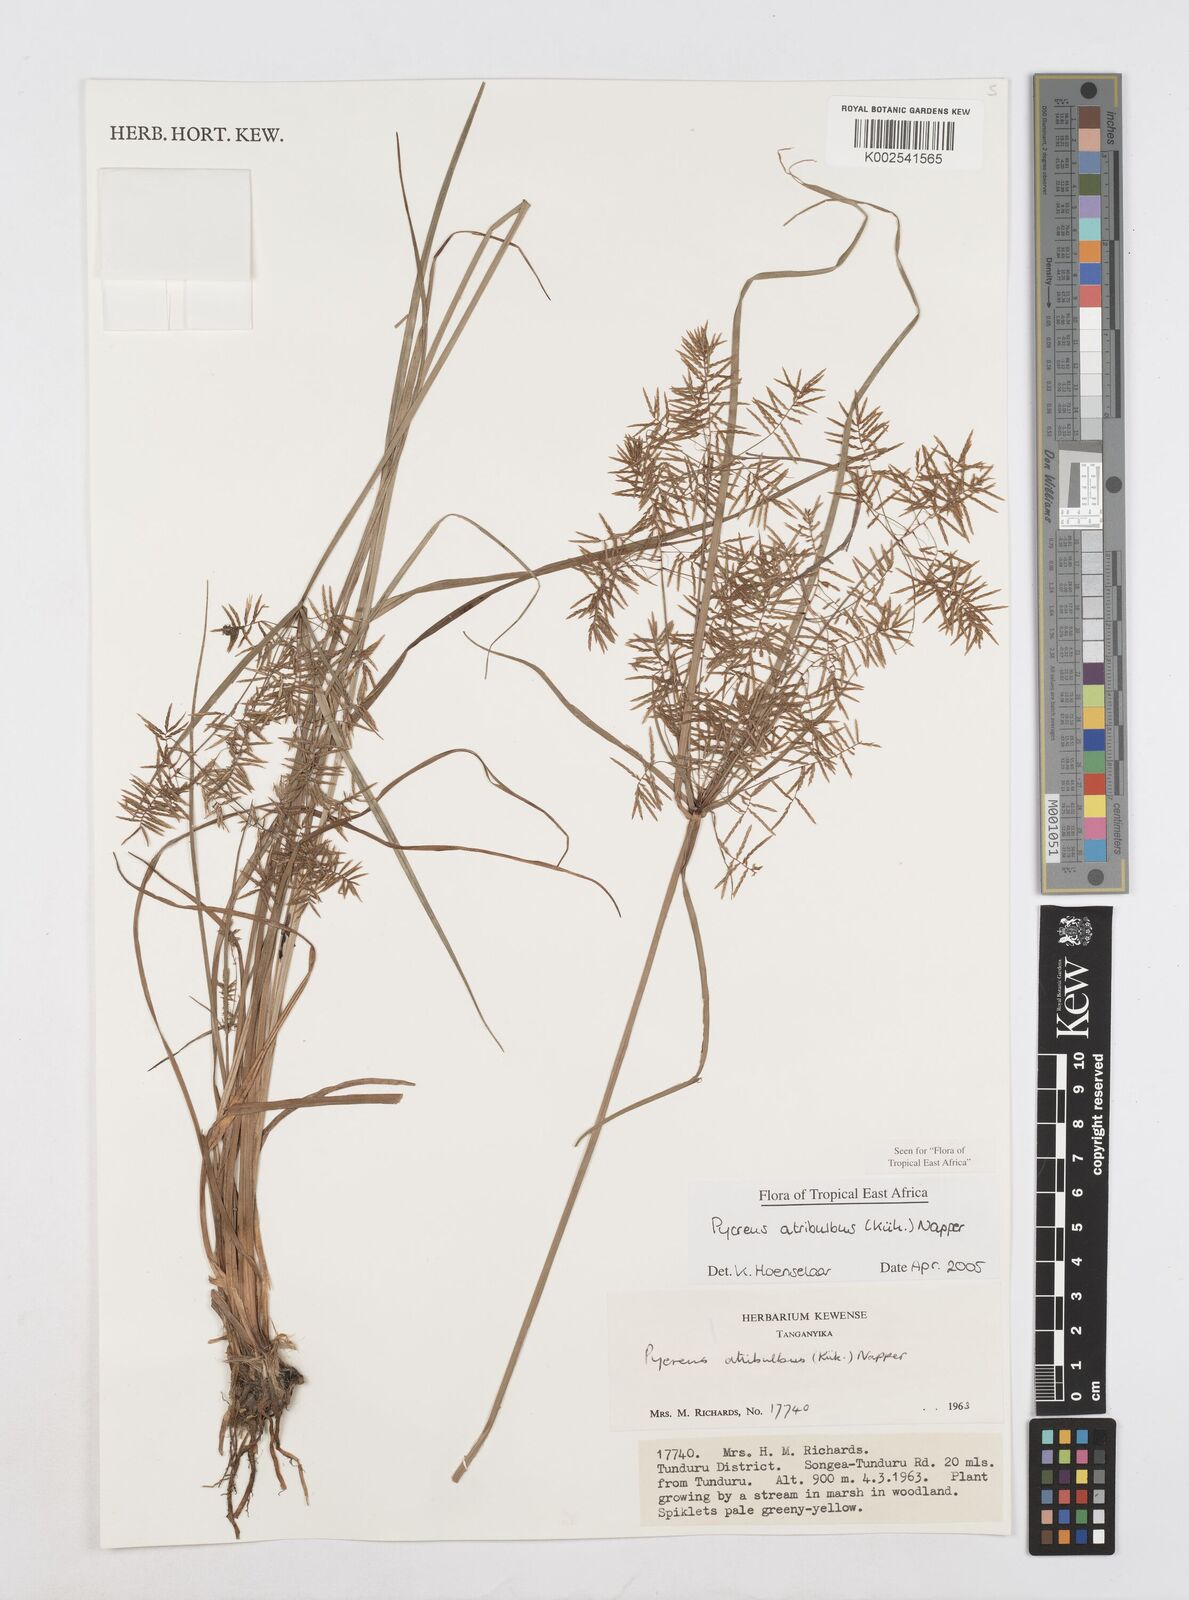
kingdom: Plantae
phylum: Tracheophyta
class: Liliopsida
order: Poales
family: Cyperaceae
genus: Cyperus
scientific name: Cyperus intactus
